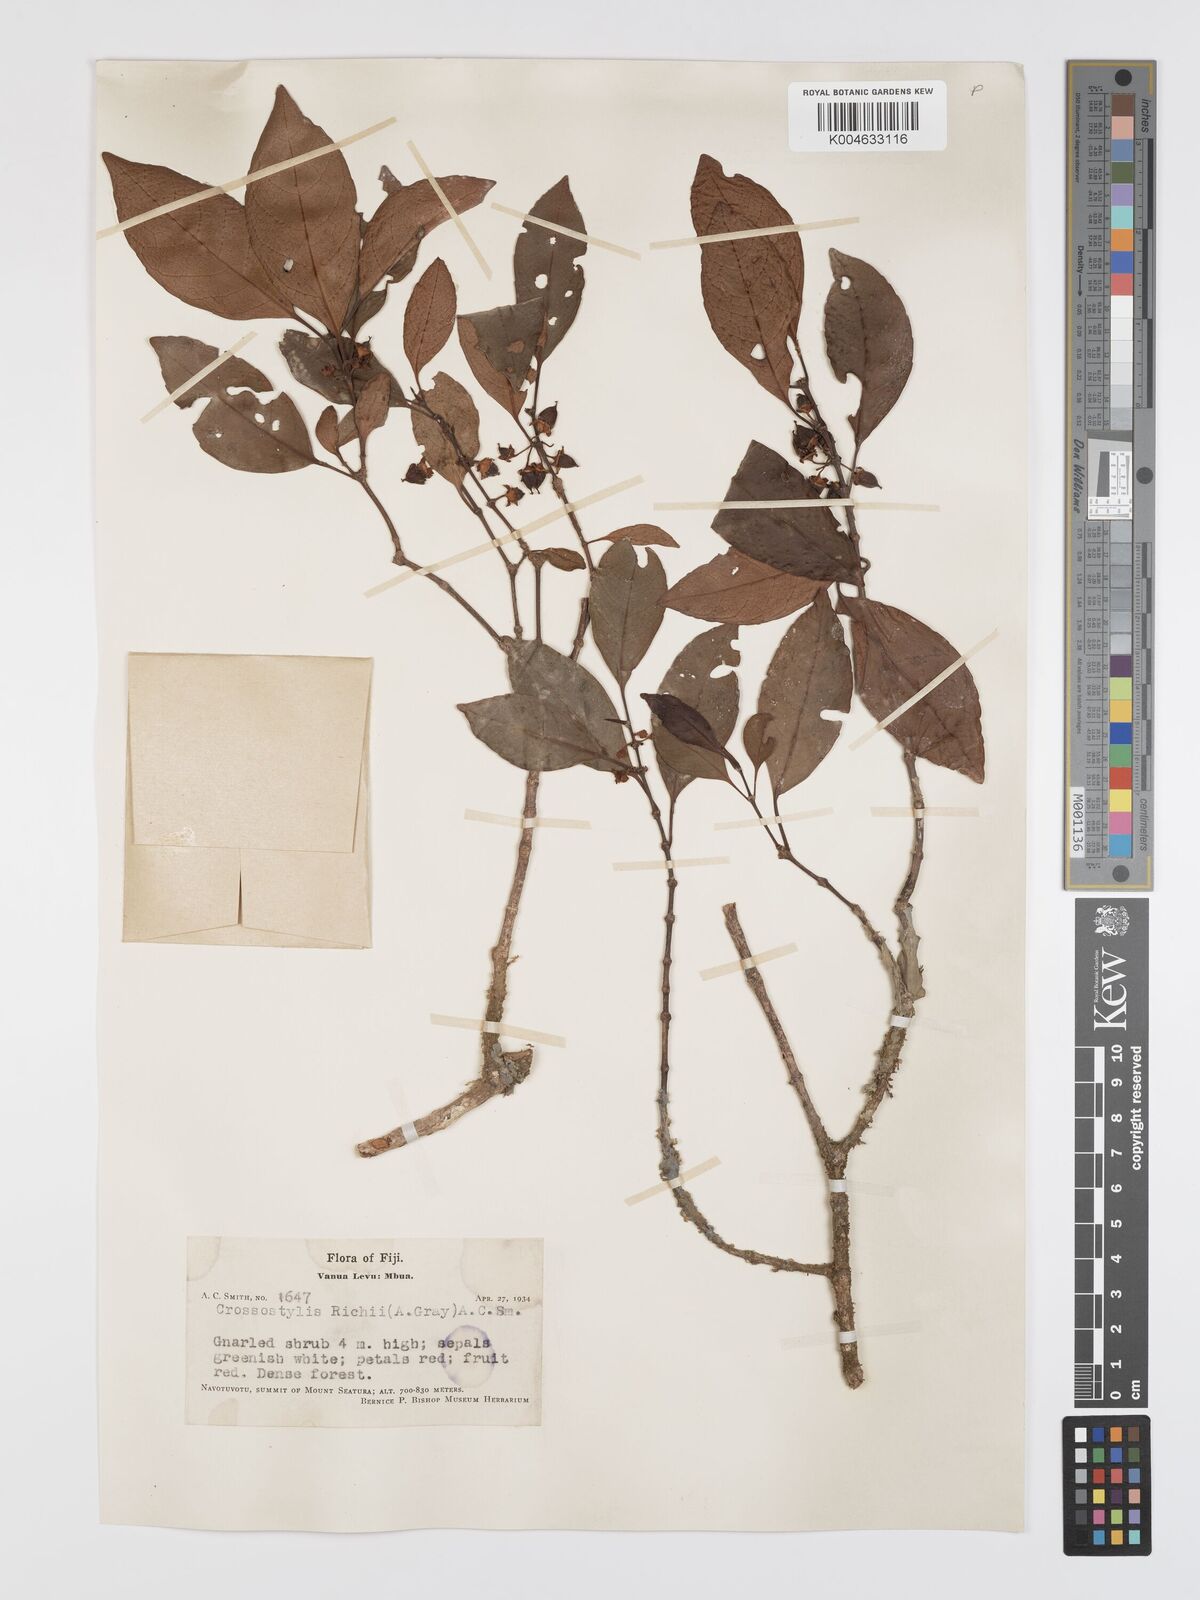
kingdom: Plantae
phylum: Tracheophyta
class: Magnoliopsida
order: Malpighiales
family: Rhizophoraceae
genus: Crossostylis
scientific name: Crossostylis richii
